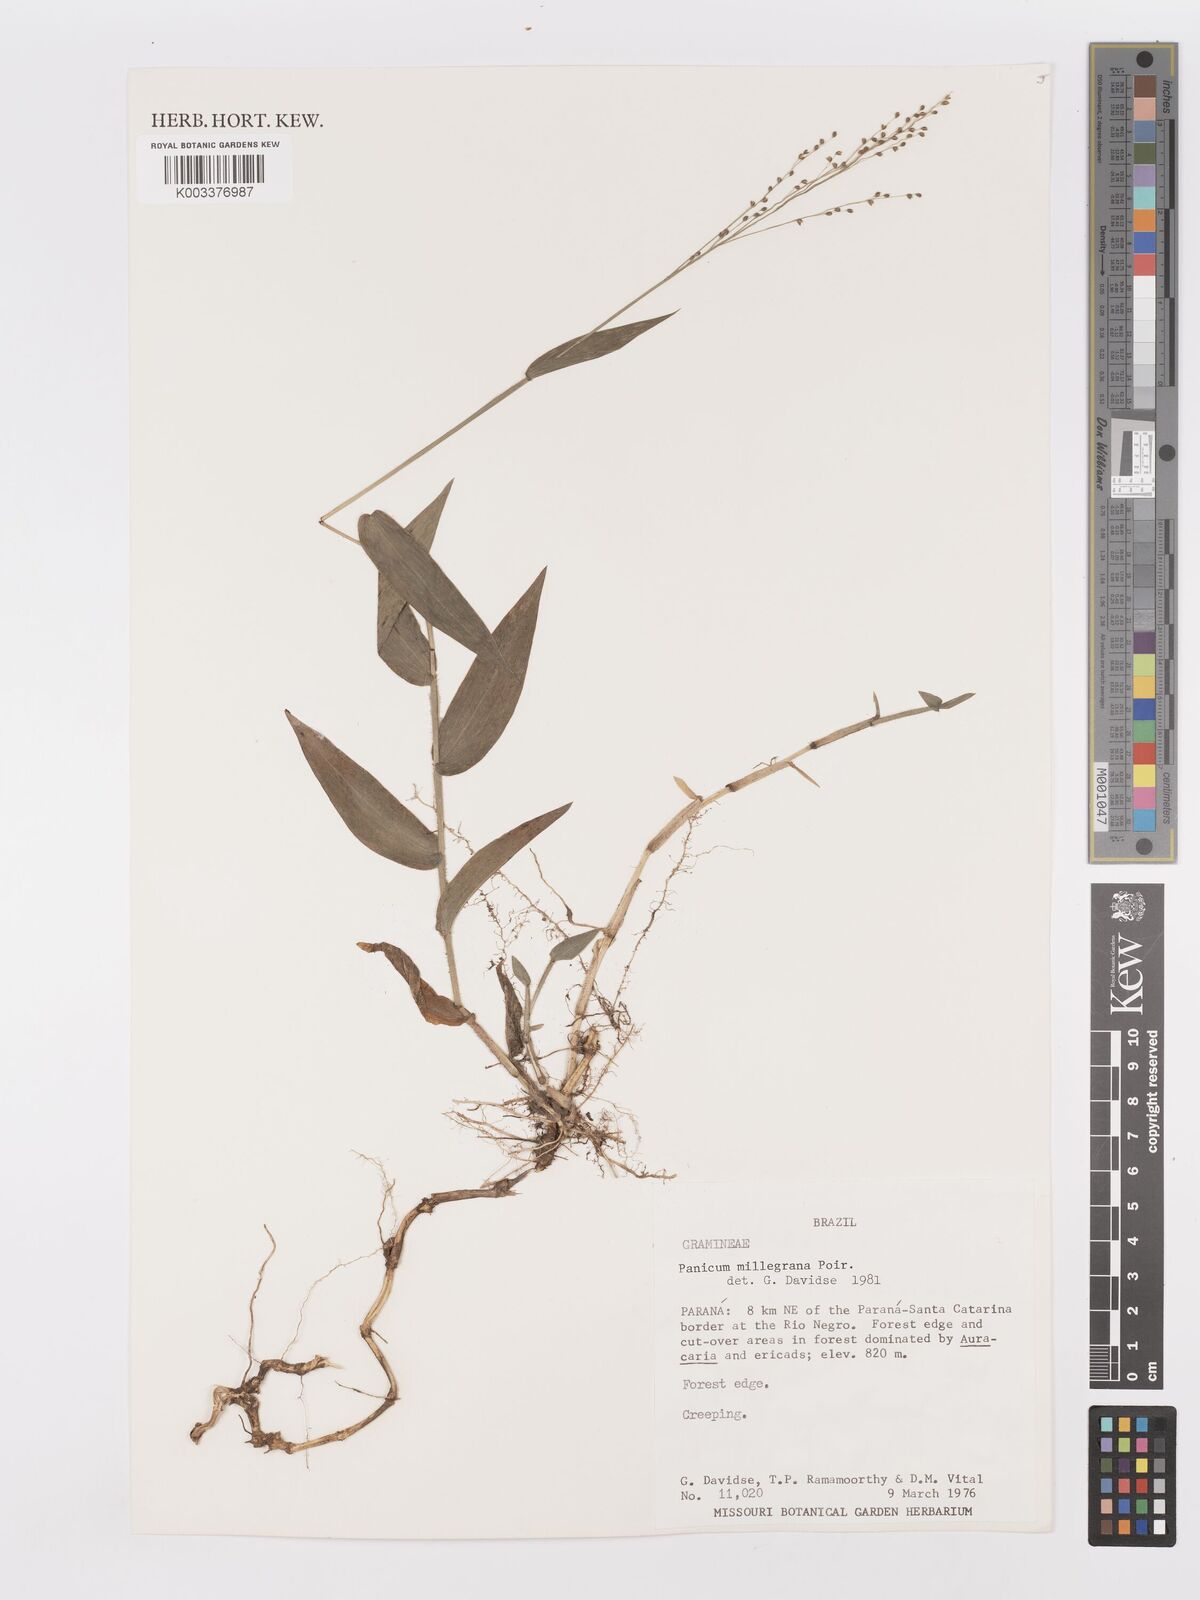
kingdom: Plantae
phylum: Tracheophyta
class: Liliopsida
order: Poales
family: Poaceae
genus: Panicum
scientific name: Panicum millegrana
